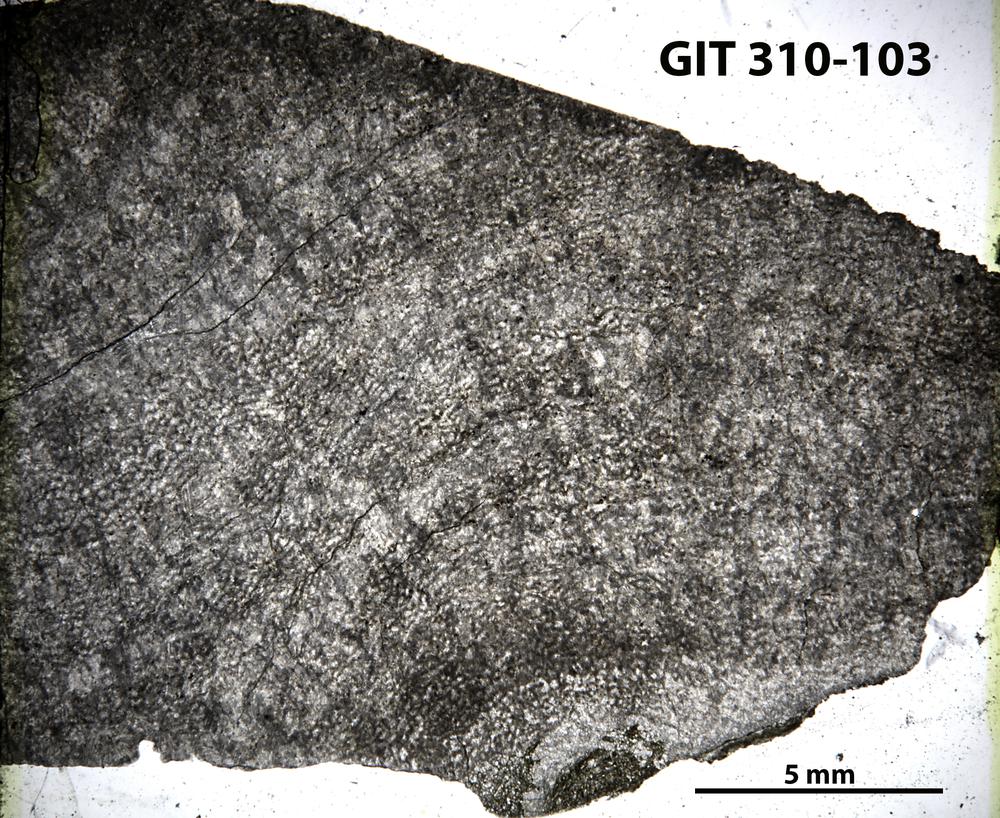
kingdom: Animalia
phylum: Porifera
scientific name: Porifera
